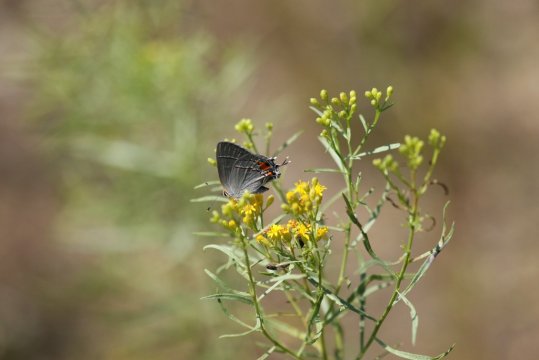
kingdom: Animalia
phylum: Arthropoda
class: Insecta
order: Lepidoptera
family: Lycaenidae
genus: Strymon
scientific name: Strymon melinus
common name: Gray Hairstreak
